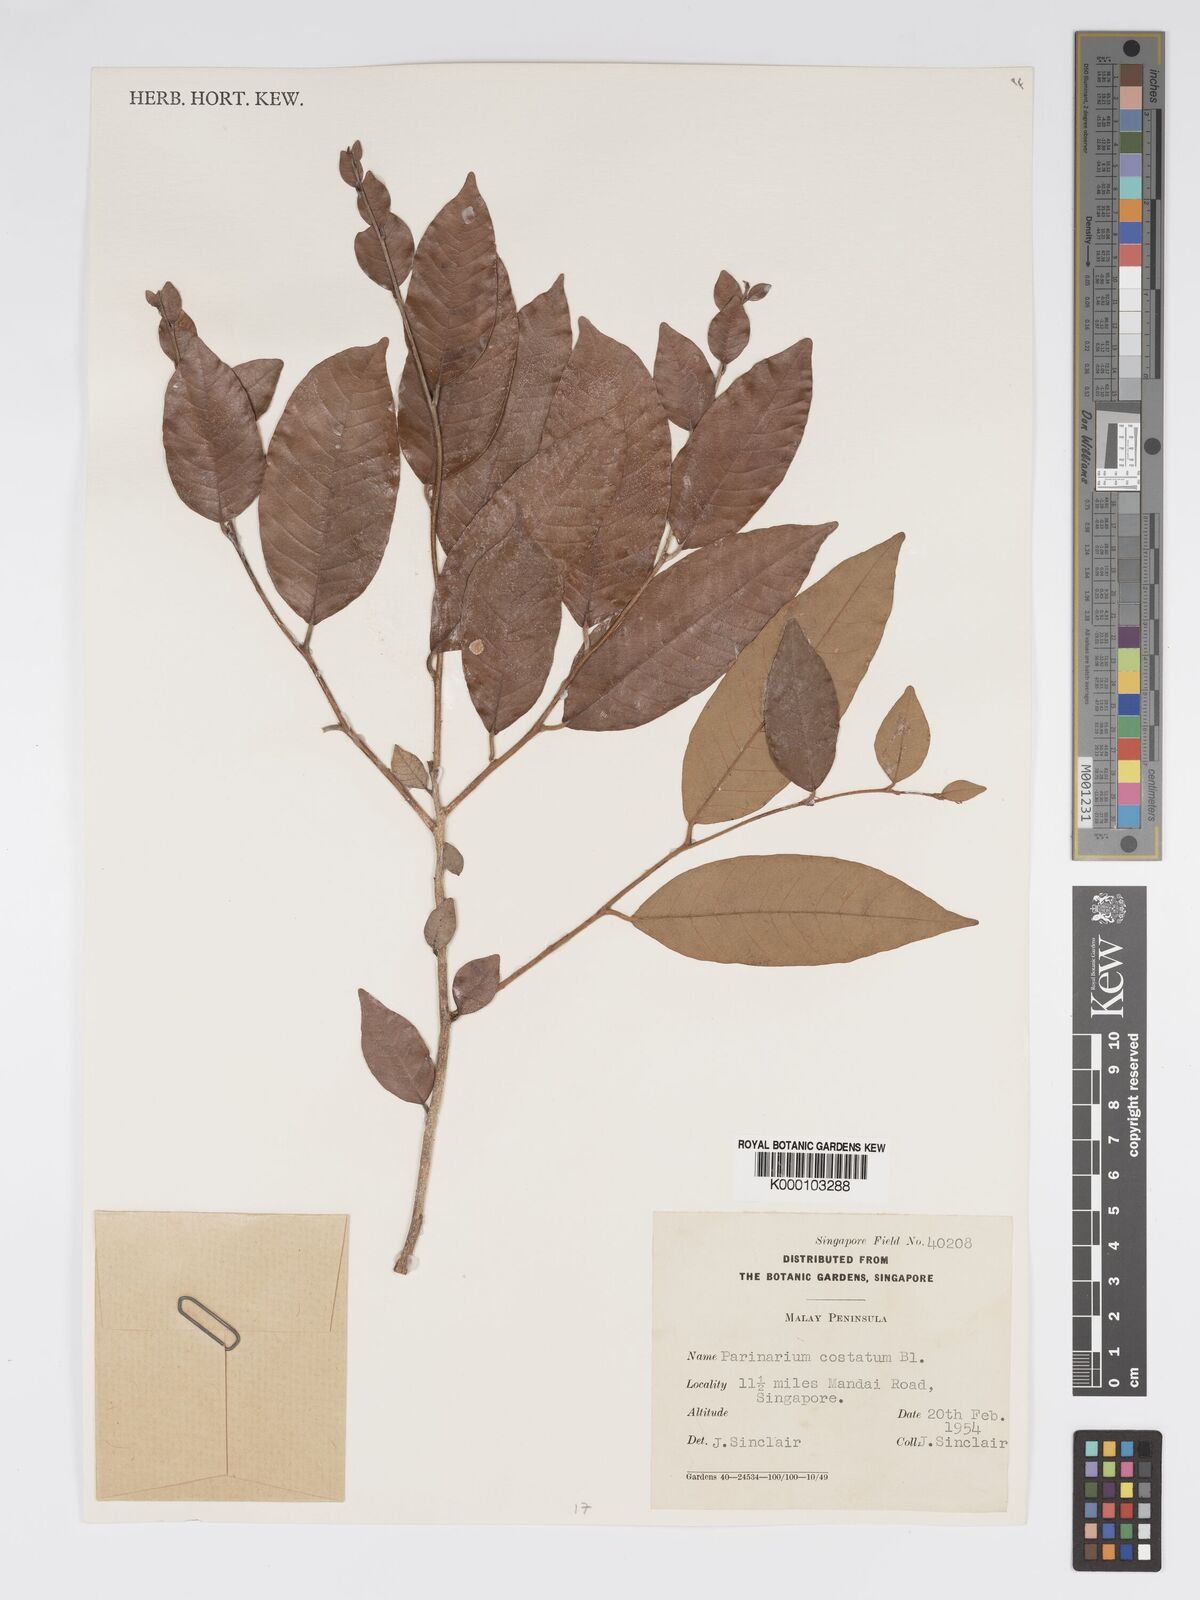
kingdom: Plantae
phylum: Tracheophyta
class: Magnoliopsida
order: Malpighiales
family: Chrysobalanaceae
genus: Parinari
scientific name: Parinari costata
